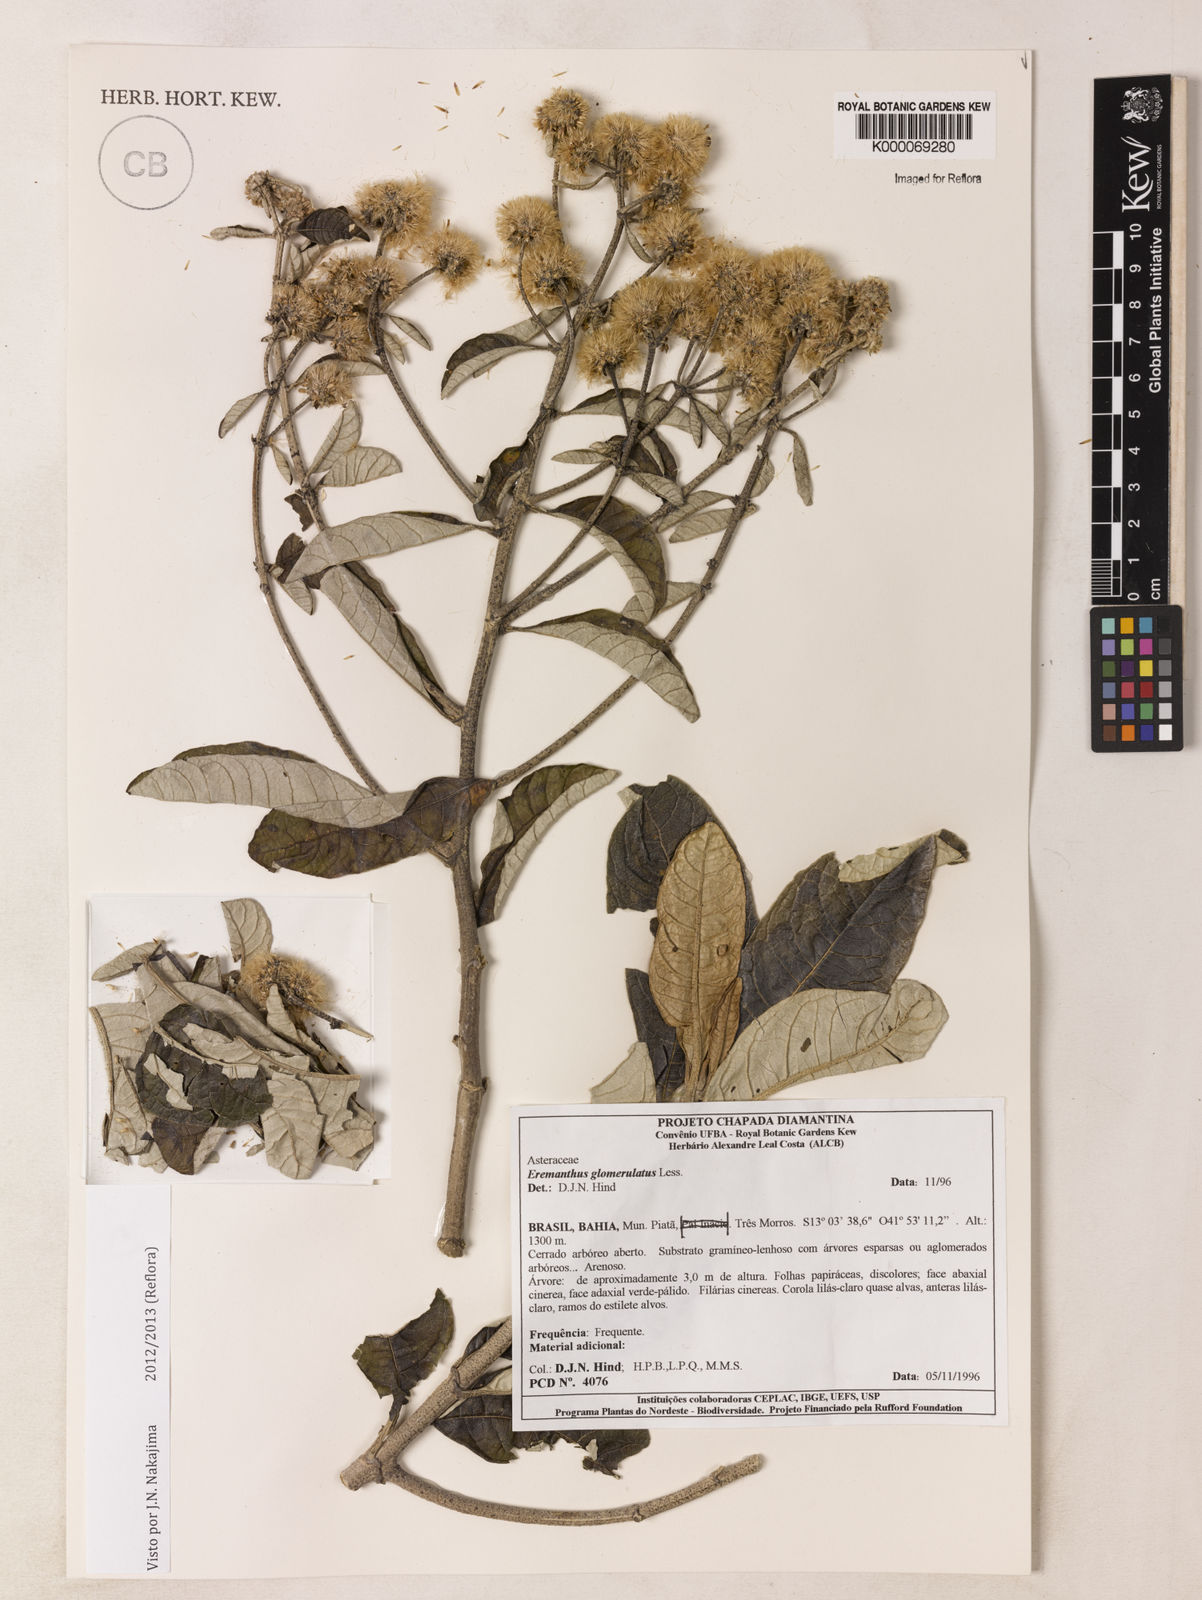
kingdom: Plantae
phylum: Tracheophyta
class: Magnoliopsida
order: Asterales
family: Asteraceae
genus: Eremanthus
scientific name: Eremanthus glomerulatus
